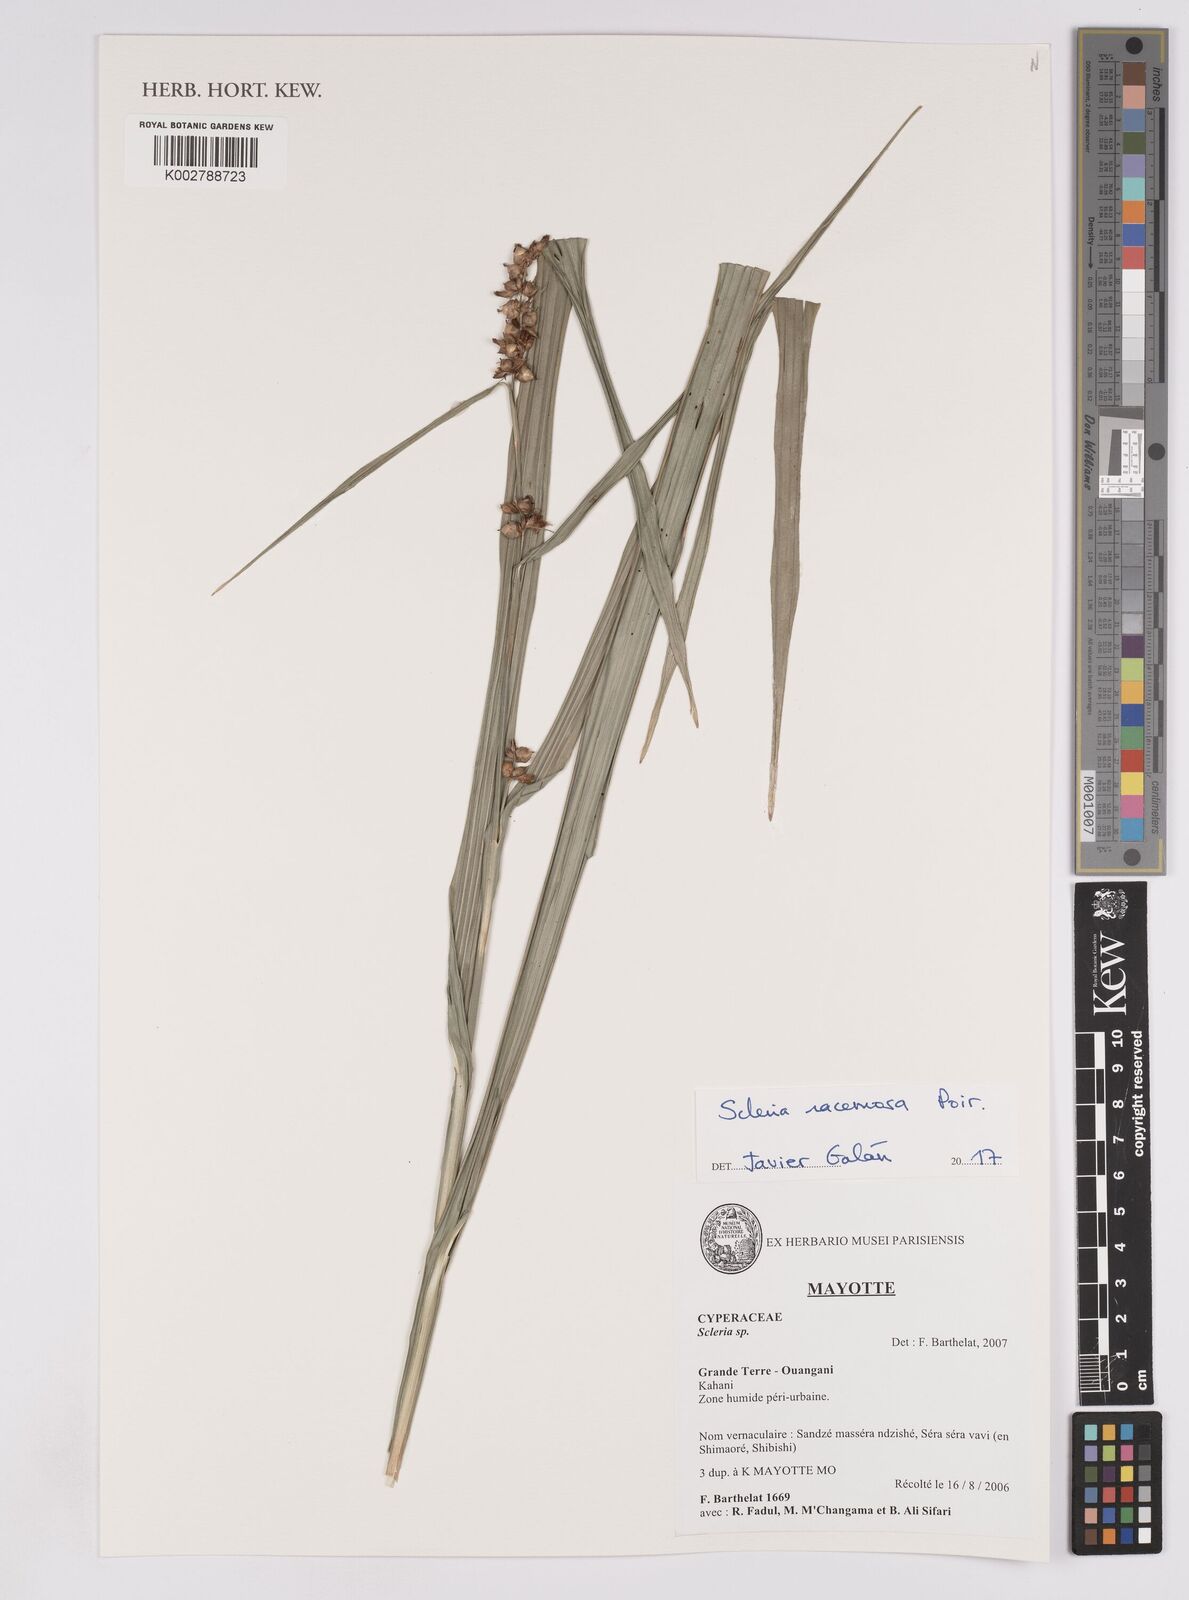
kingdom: Plantae
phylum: Tracheophyta
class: Liliopsida
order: Poales
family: Cyperaceae
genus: Scleria
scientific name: Scleria racemosa
